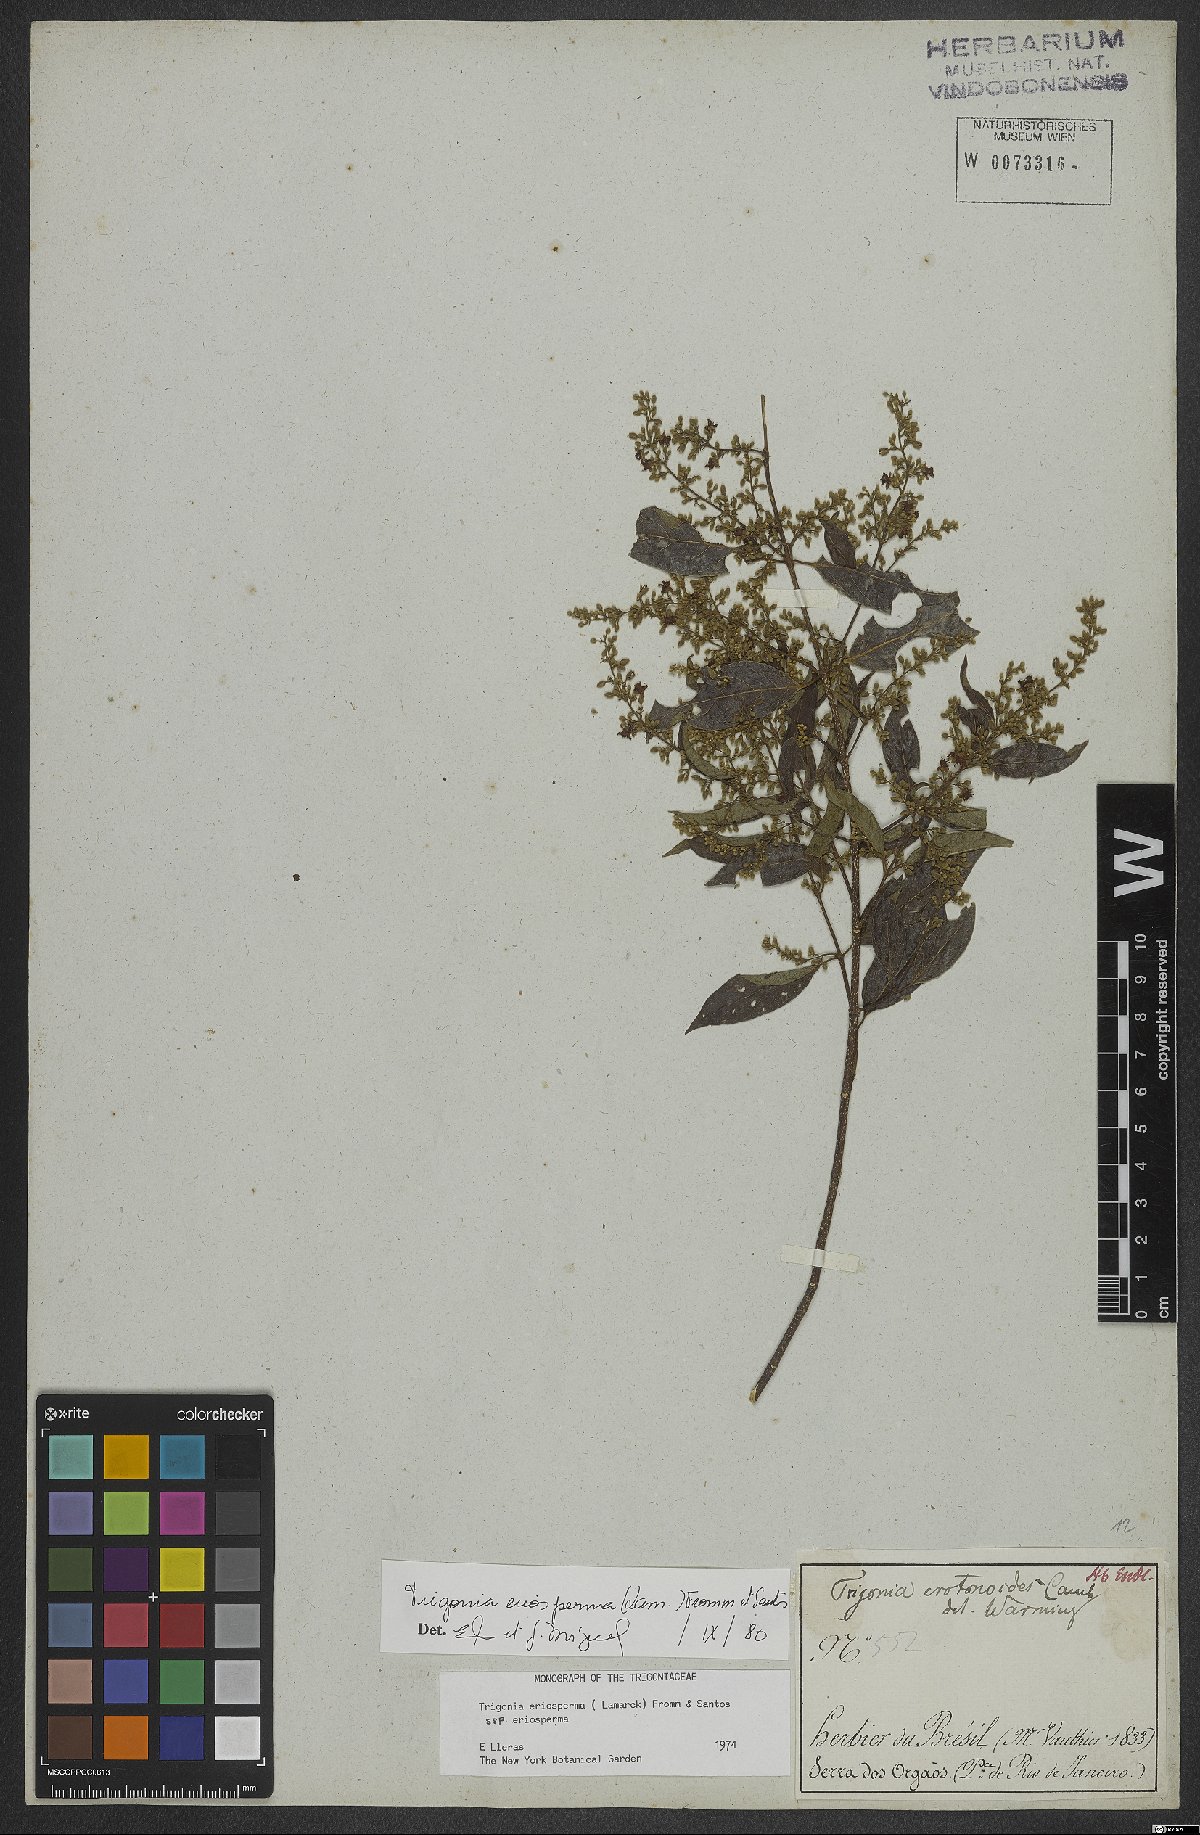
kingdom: Plantae
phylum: Tracheophyta
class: Magnoliopsida
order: Malpighiales
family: Trigoniaceae
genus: Trigonia
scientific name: Trigonia eriosperma
